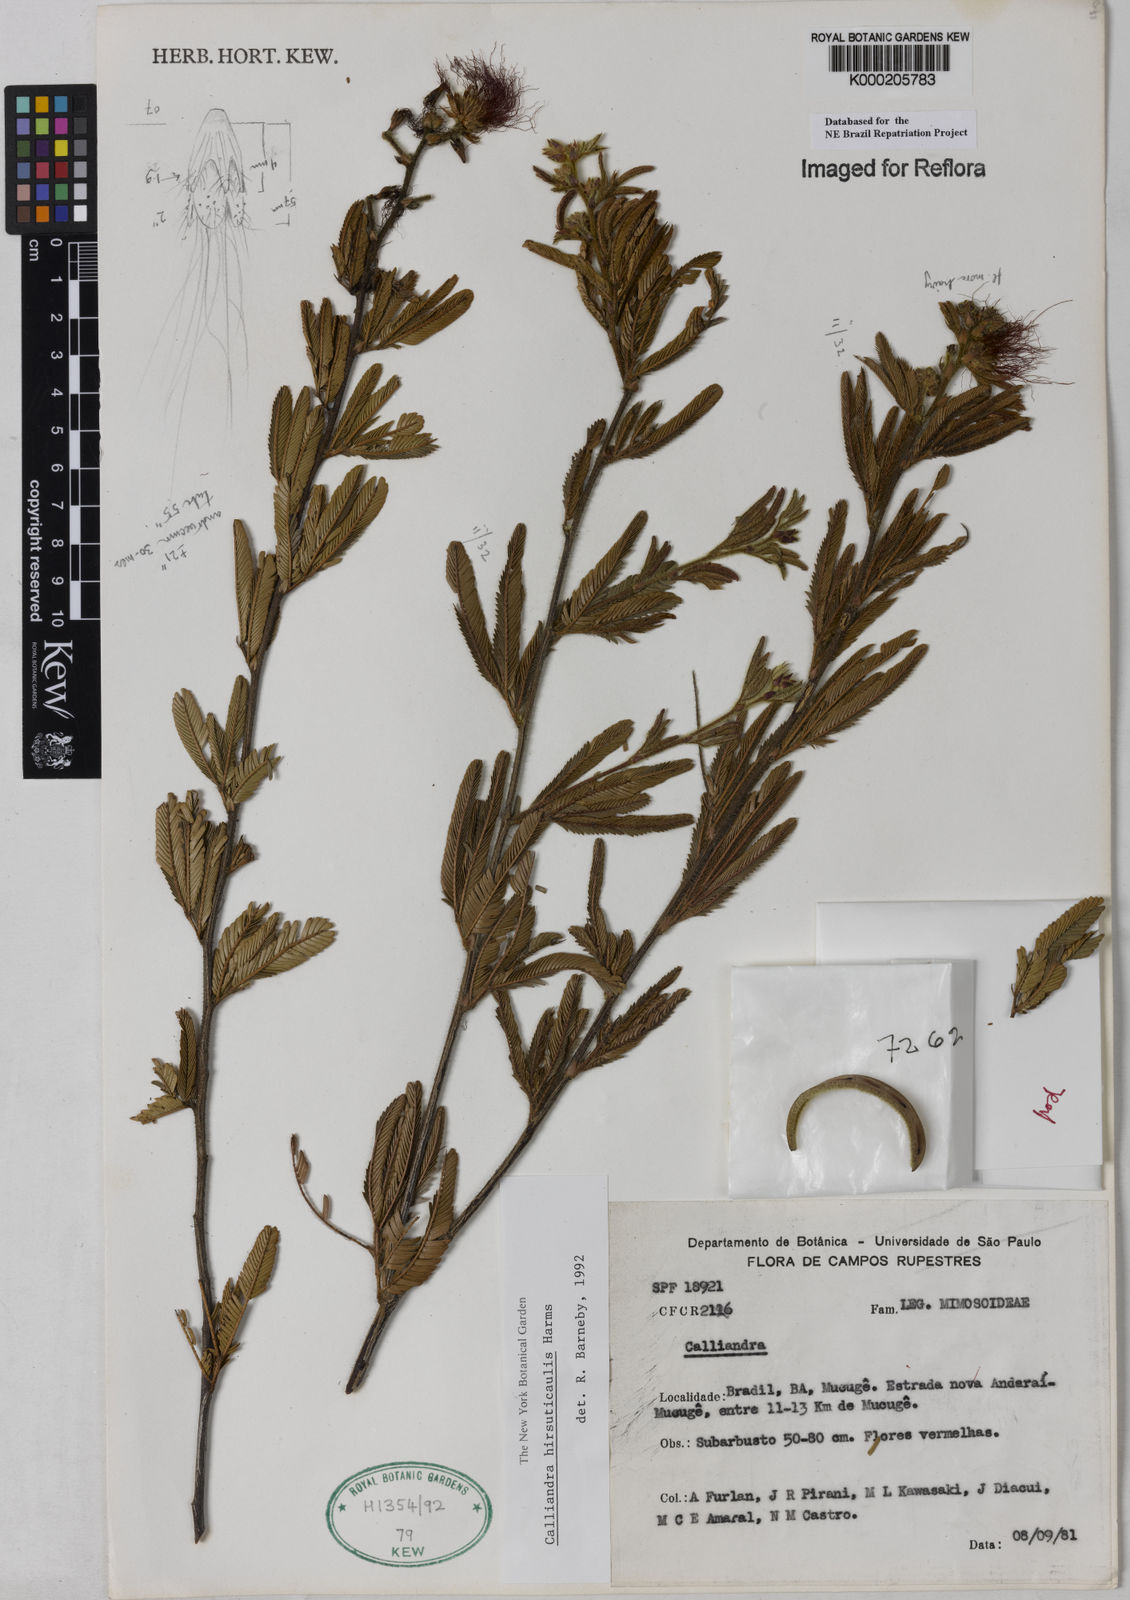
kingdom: Plantae
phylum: Tracheophyta
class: Magnoliopsida
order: Fabales
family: Fabaceae
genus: Calliandra
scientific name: Calliandra hirsuticaulis
